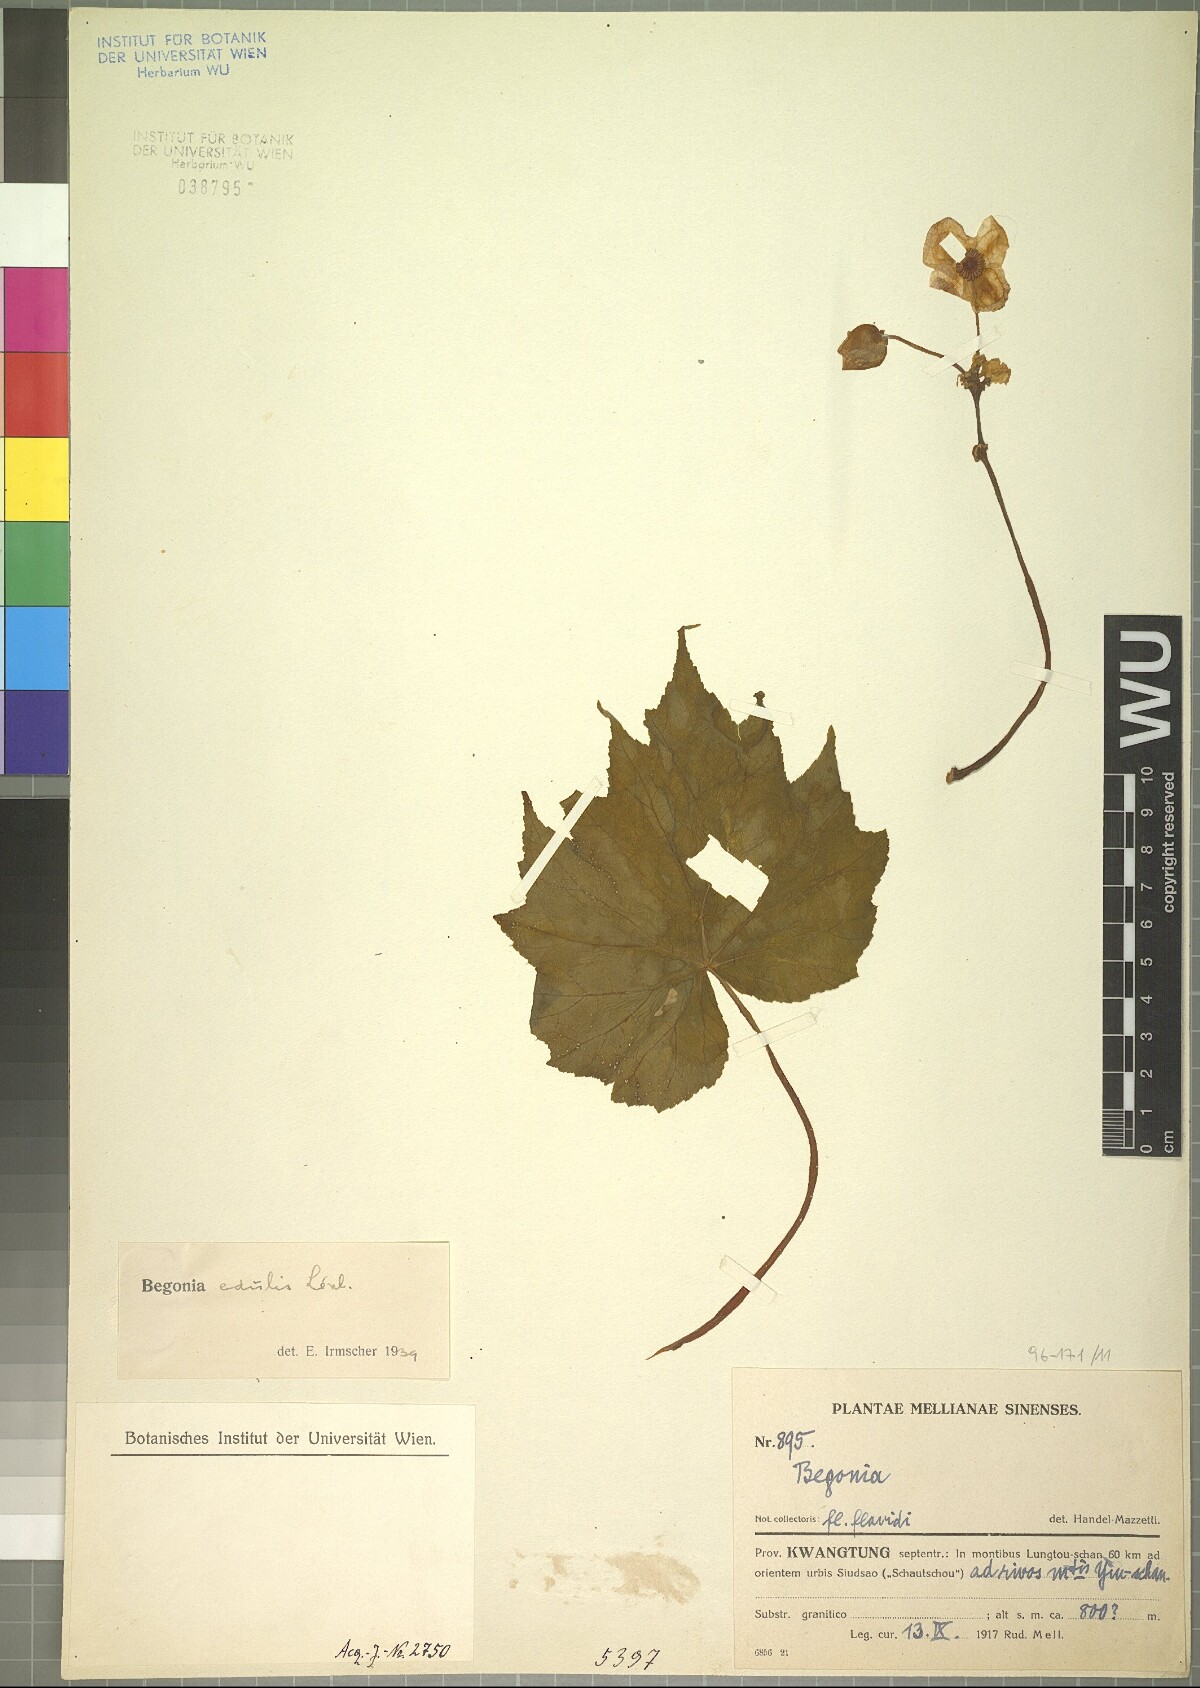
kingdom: Plantae
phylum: Tracheophyta
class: Magnoliopsida
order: Cucurbitales
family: Begoniaceae
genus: Begonia
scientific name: Begonia edulis
